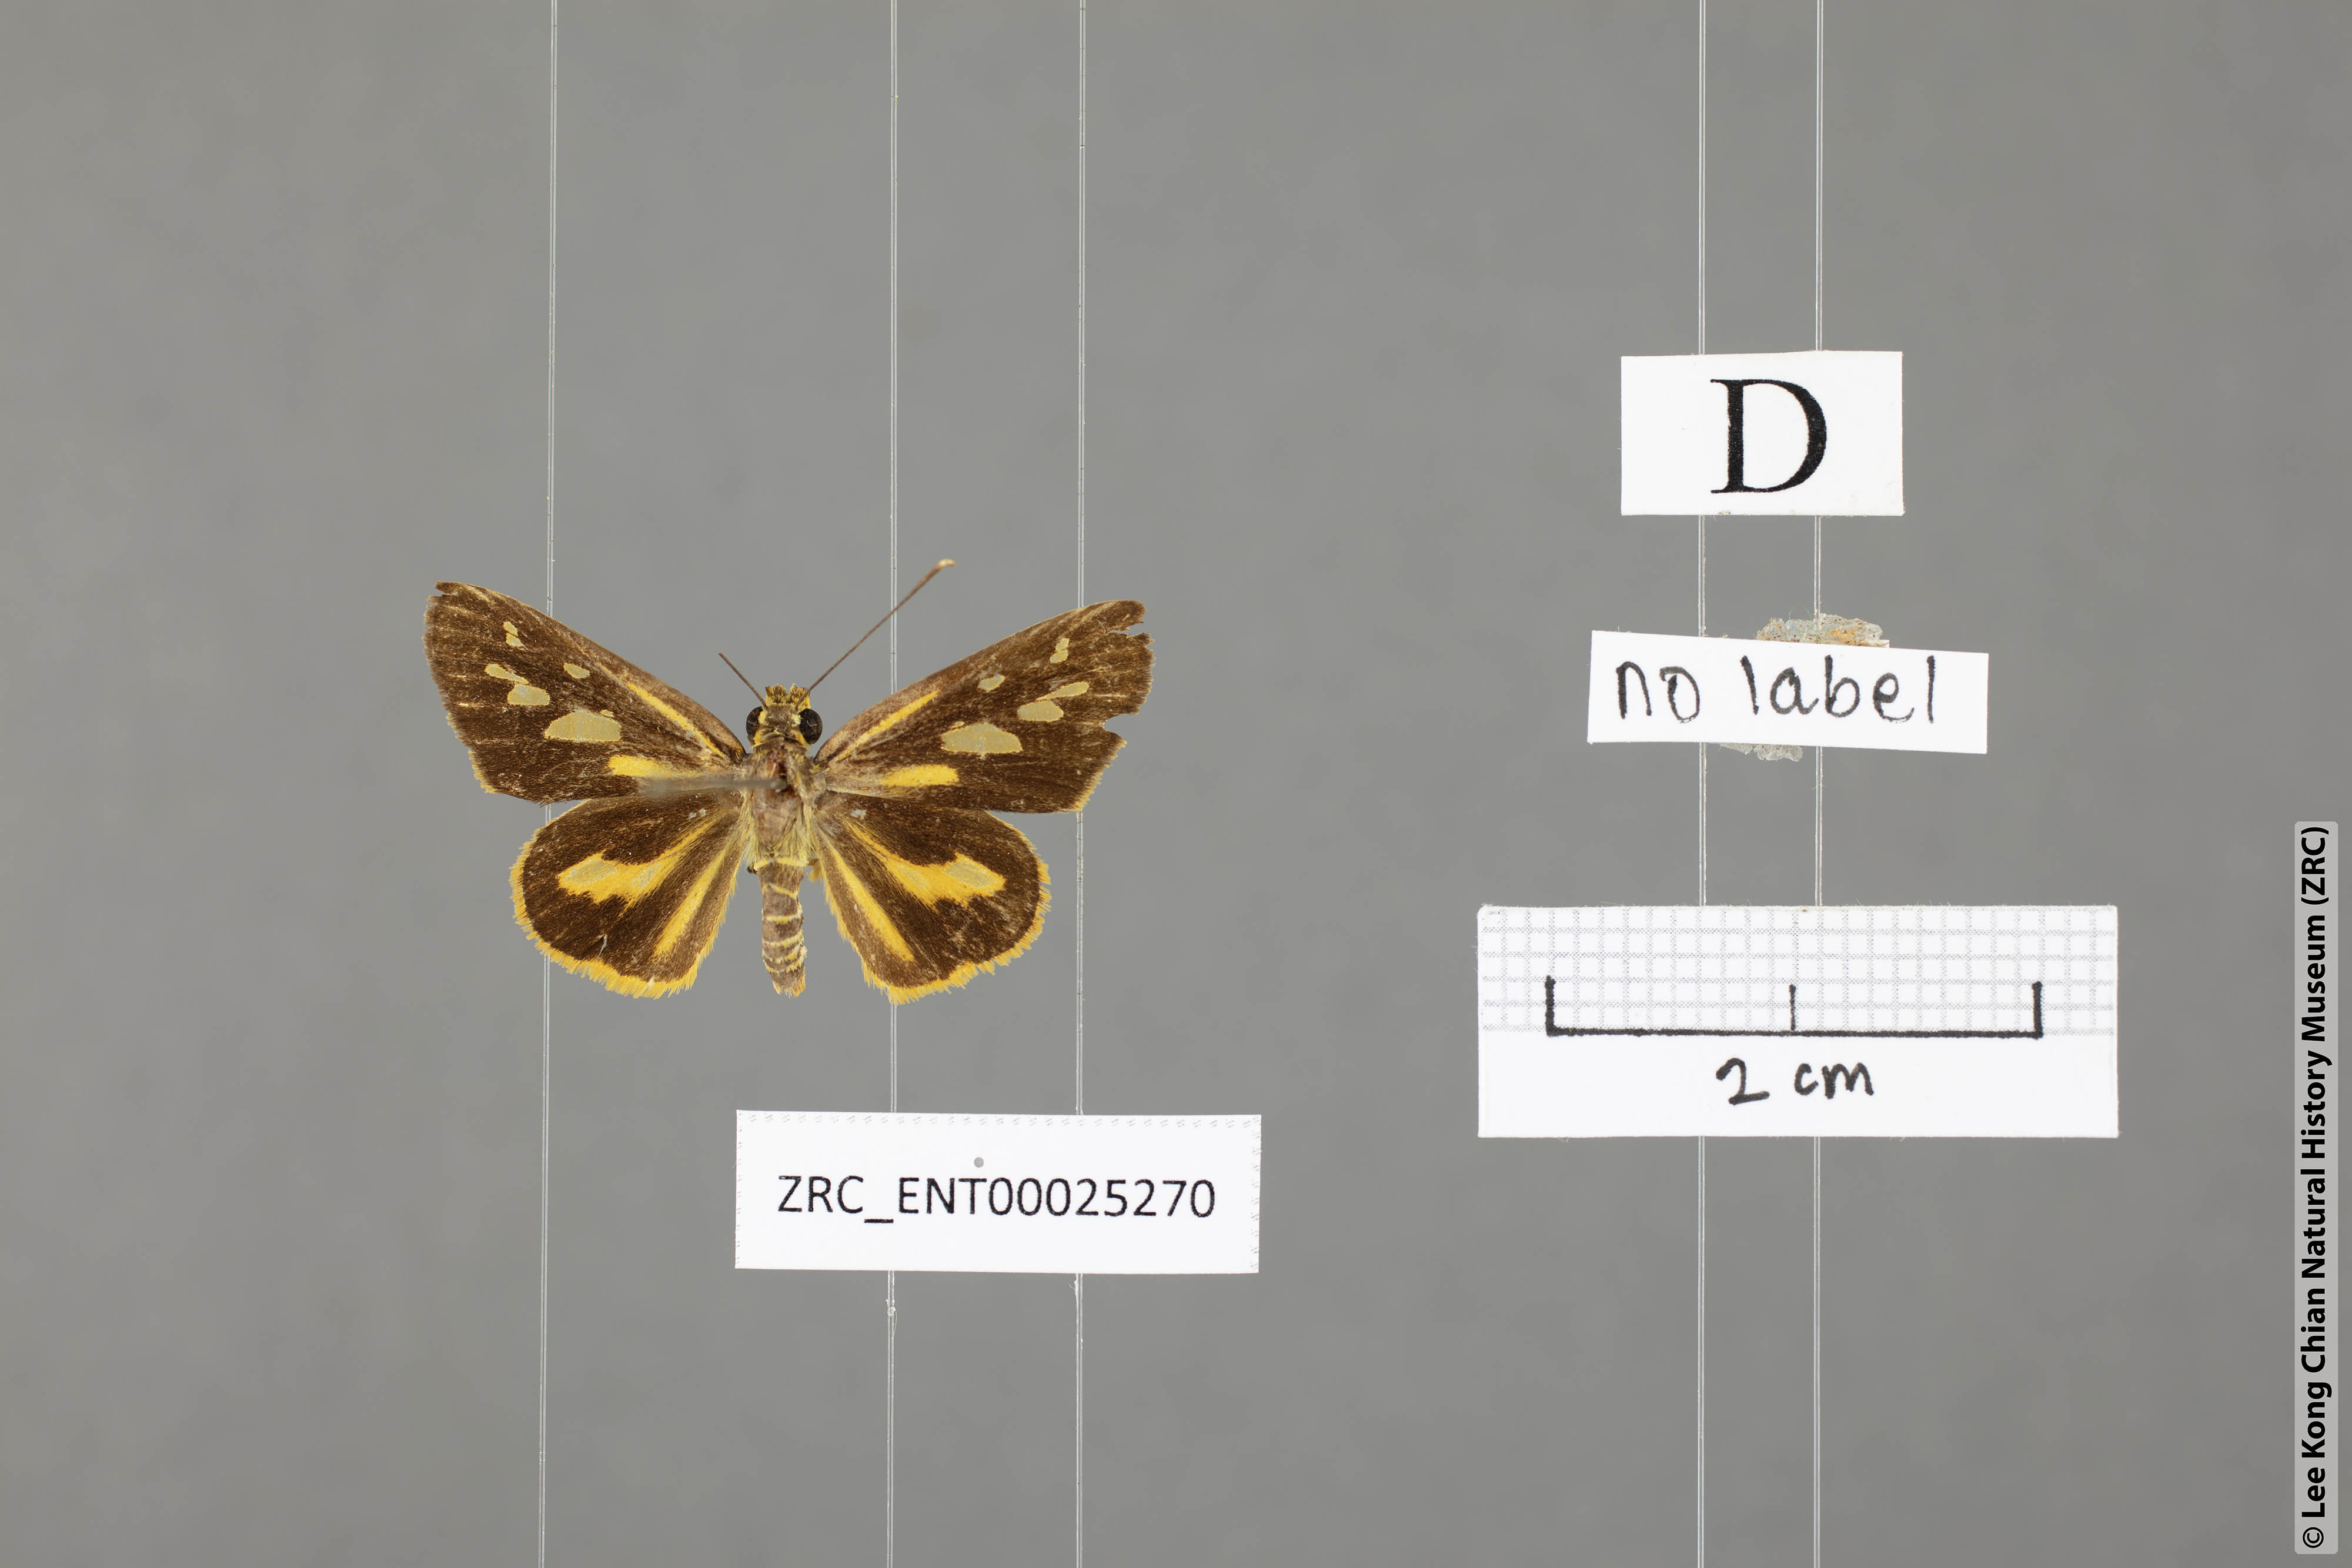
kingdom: Animalia
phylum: Arthropoda
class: Insecta
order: Lepidoptera
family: Hesperiidae
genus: Pyroneura
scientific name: Pyroneura helena
